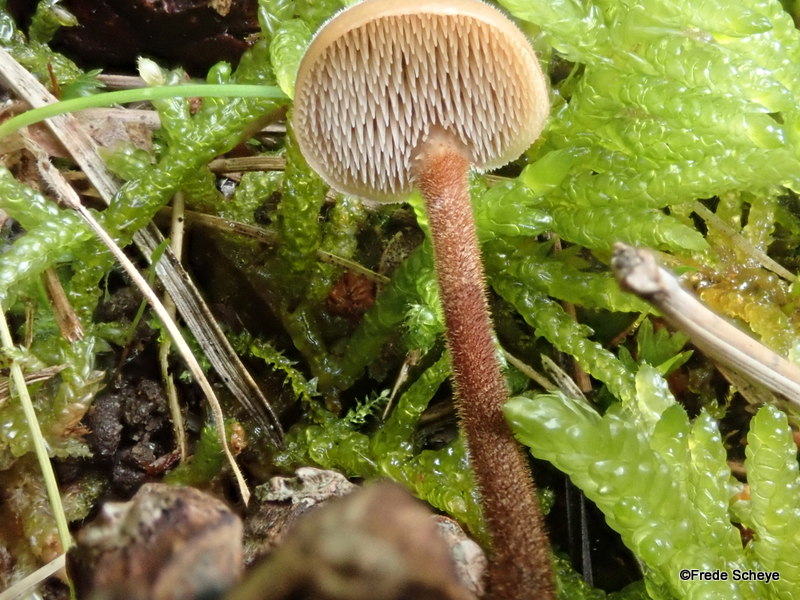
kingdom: Fungi
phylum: Basidiomycota
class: Agaricomycetes
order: Russulales
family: Auriscalpiaceae
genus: Auriscalpium
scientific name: Auriscalpium vulgare
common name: koglepigsvamp
